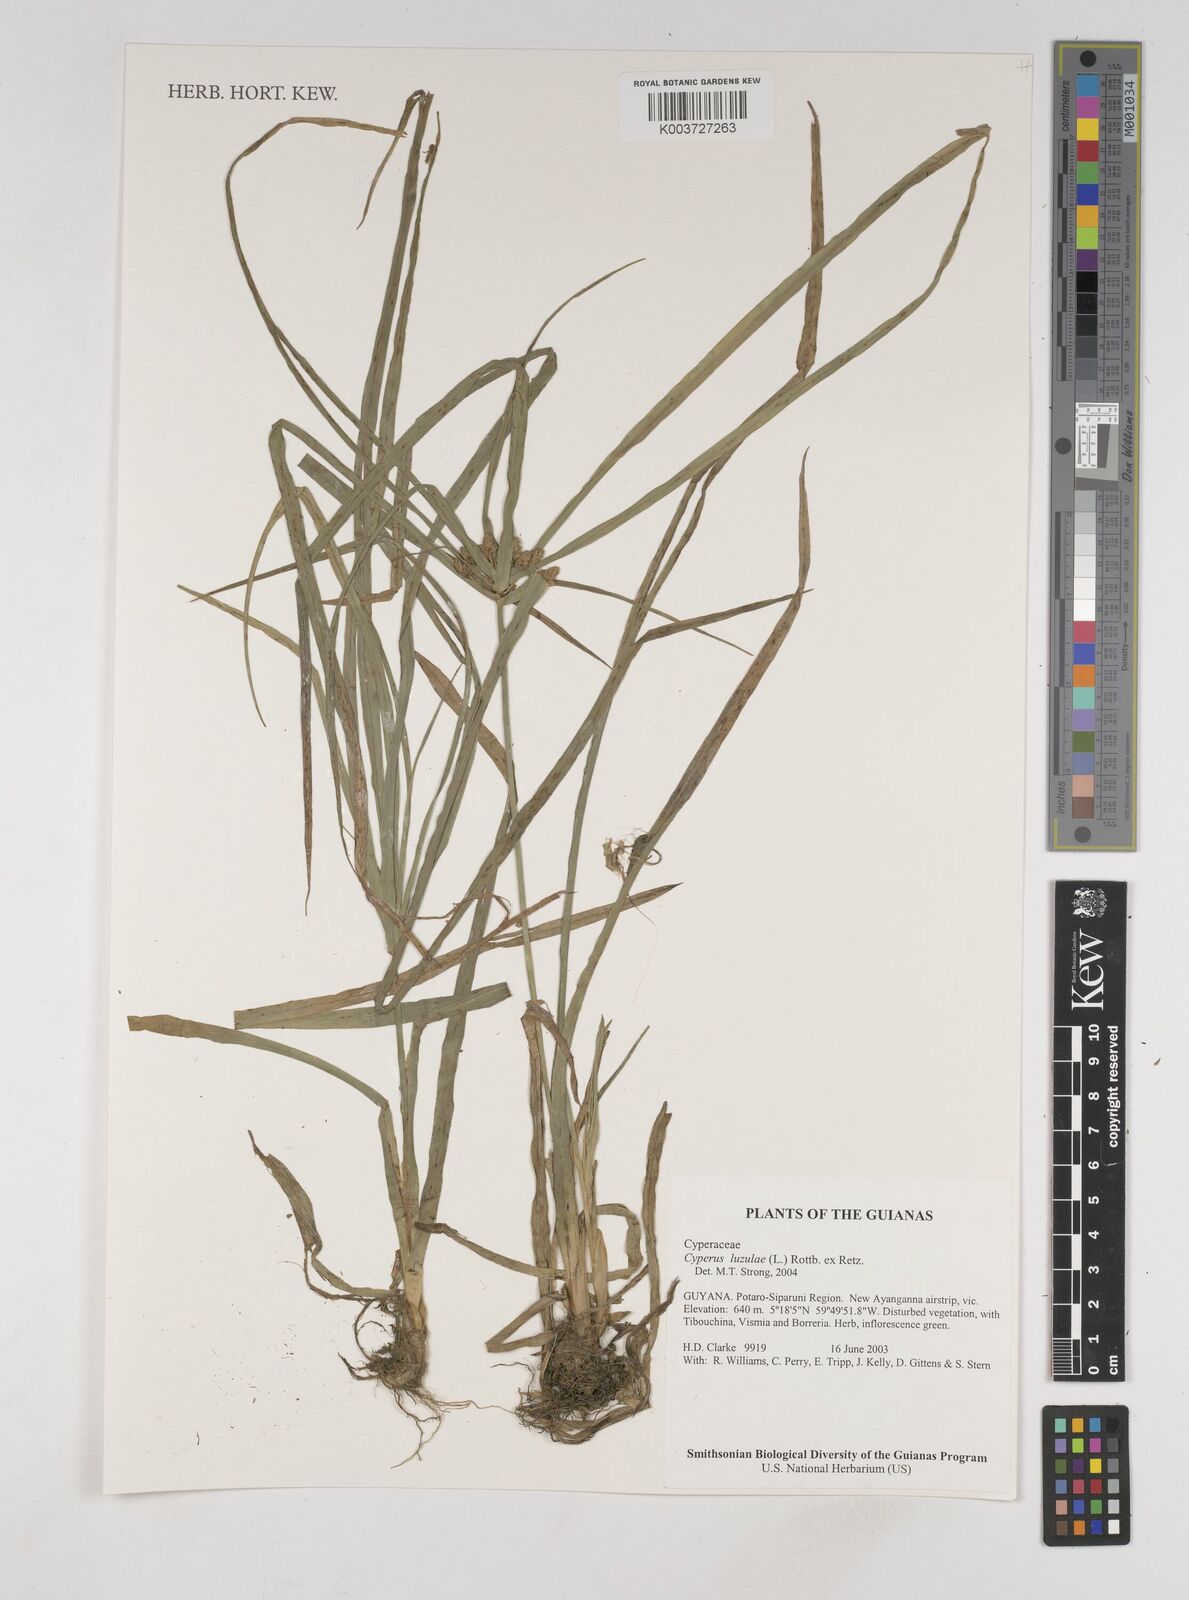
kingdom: Plantae
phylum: Tracheophyta
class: Liliopsida
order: Poales
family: Cyperaceae
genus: Cyperus
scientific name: Cyperus luzulae
